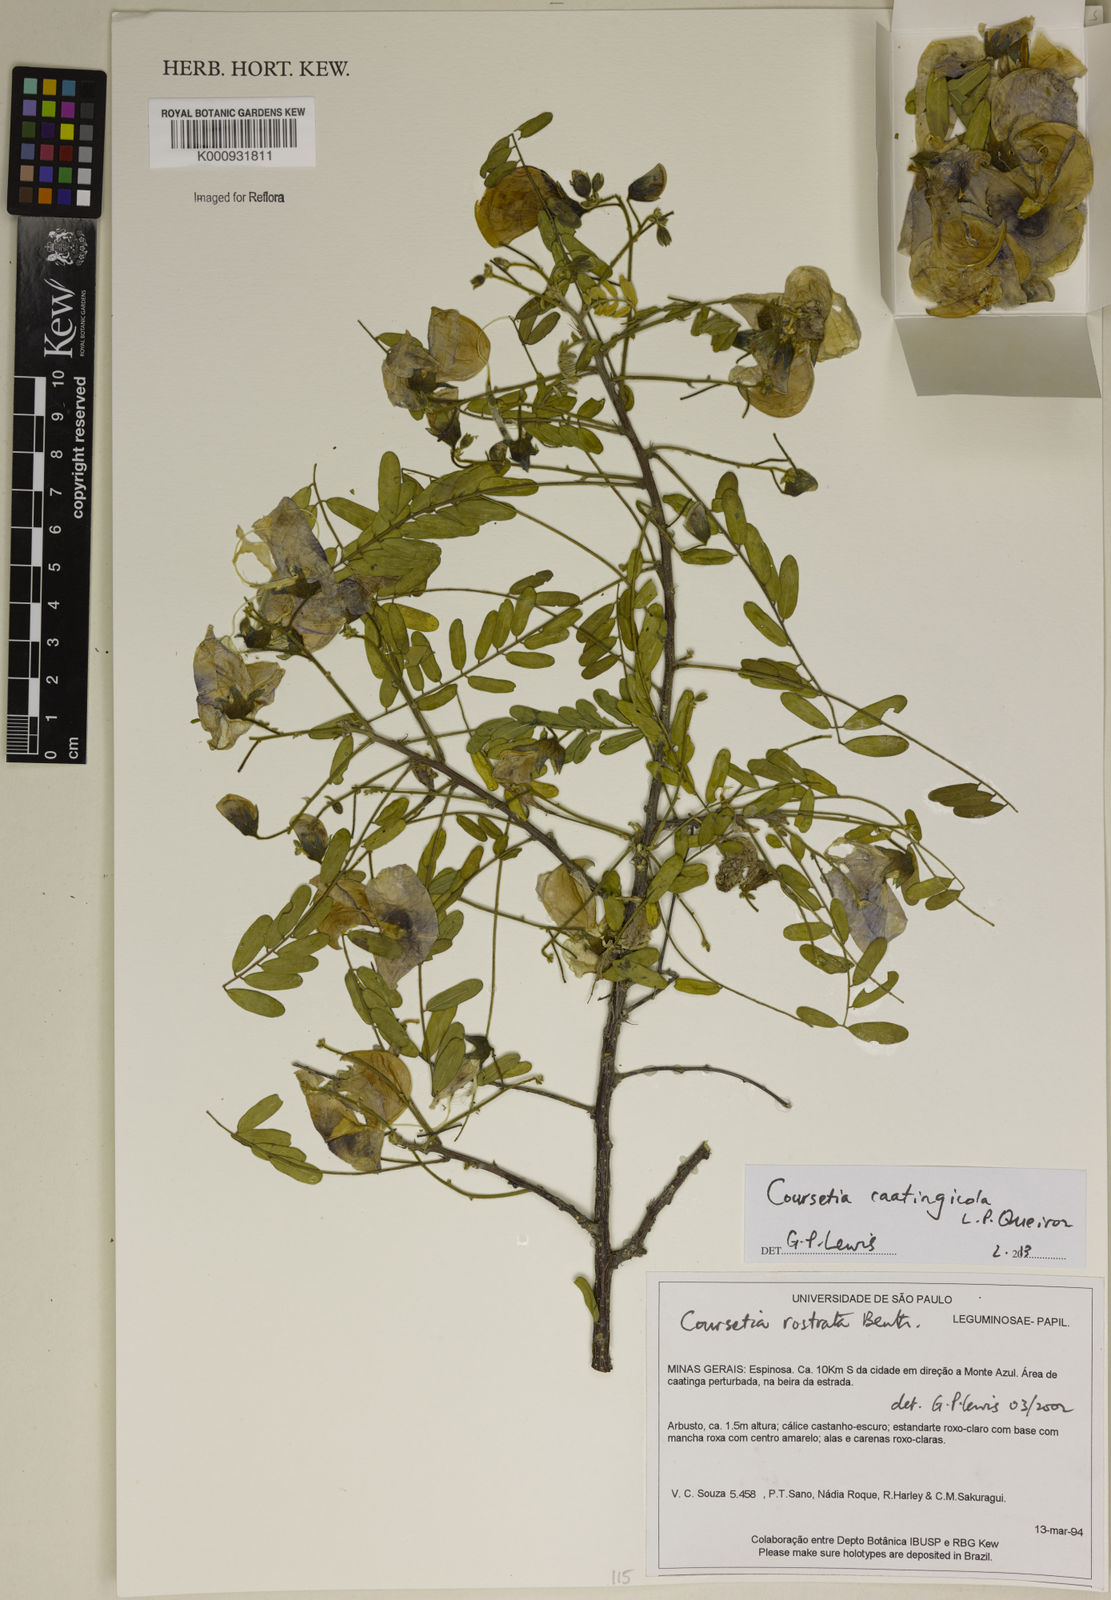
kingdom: Plantae
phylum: Tracheophyta
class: Magnoliopsida
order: Fabales
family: Fabaceae
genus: Coursetia
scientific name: Coursetia caatingicola
